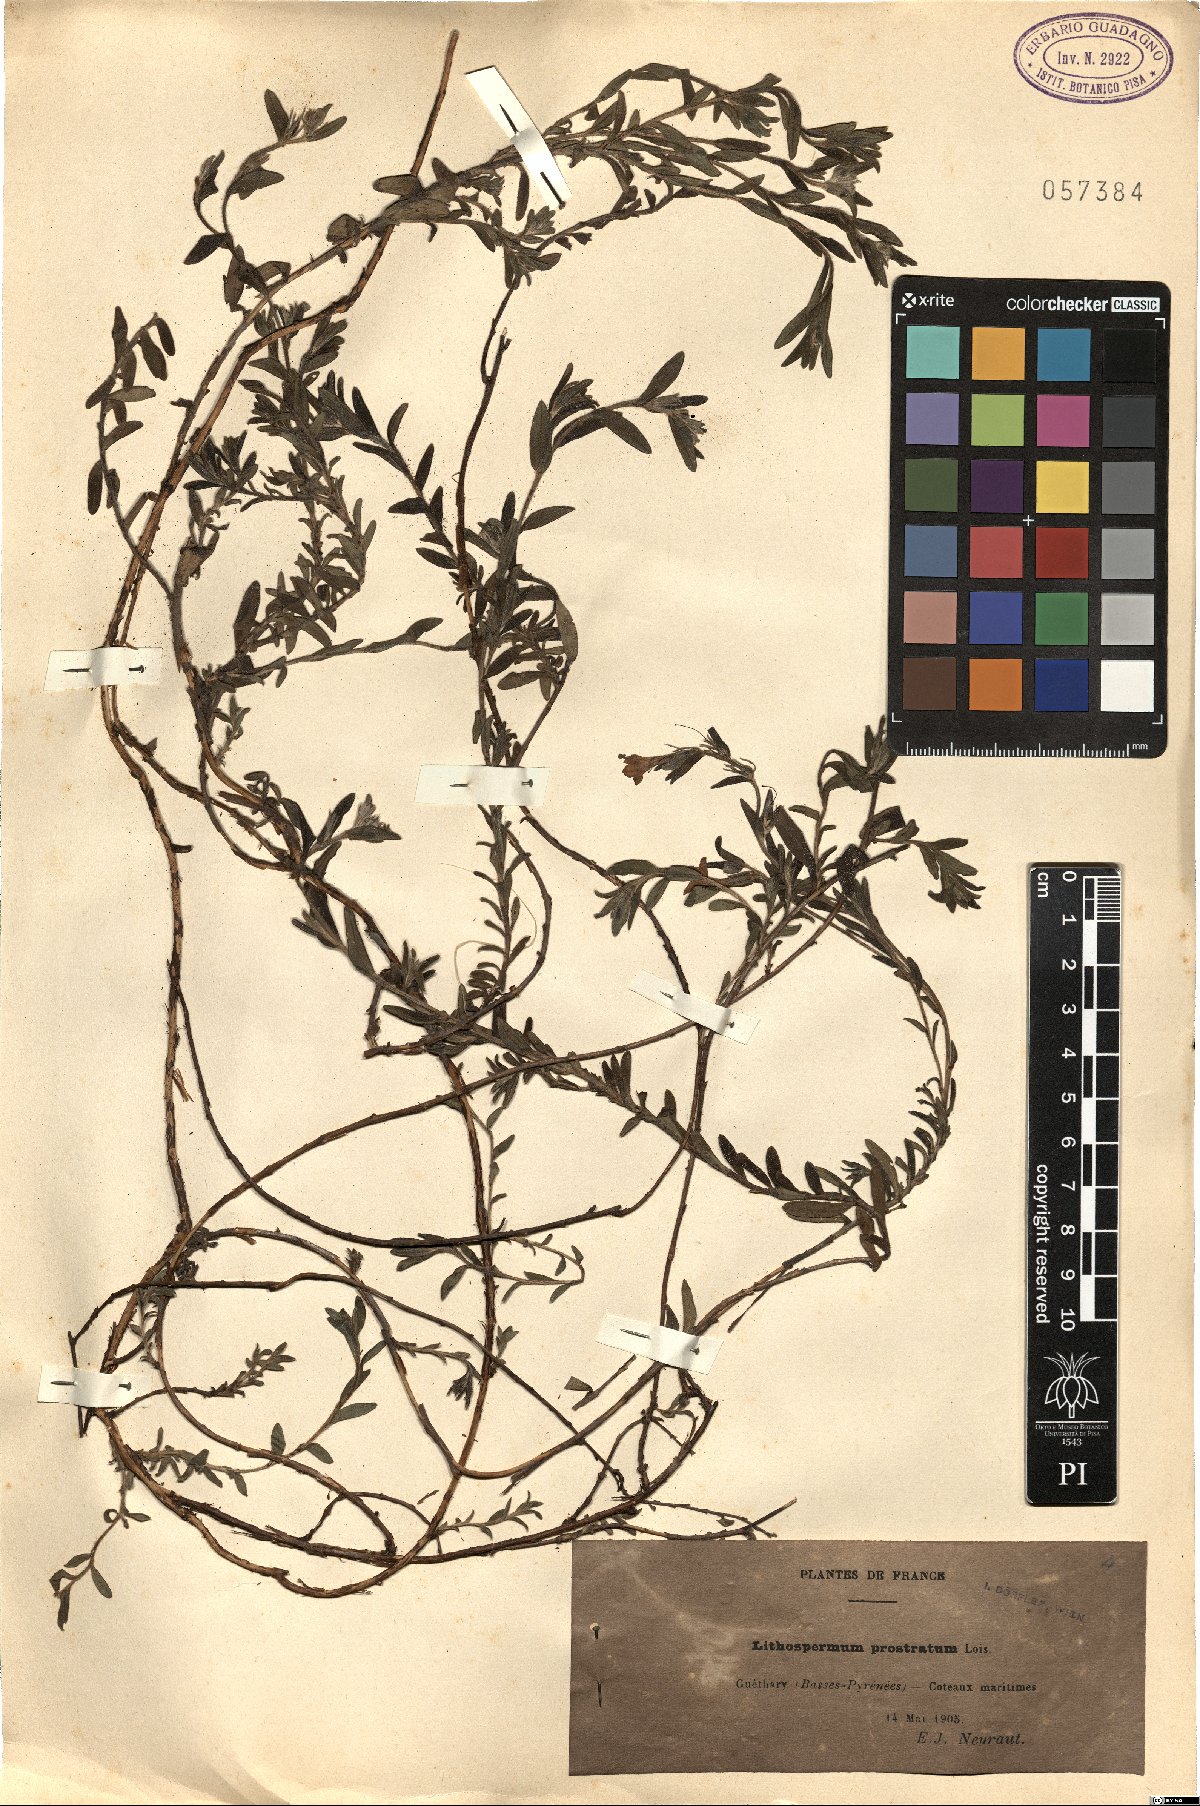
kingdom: Plantae
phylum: Tracheophyta
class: Magnoliopsida
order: Boraginales
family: Boraginaceae
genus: Glandora
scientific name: Glandora prostrata
